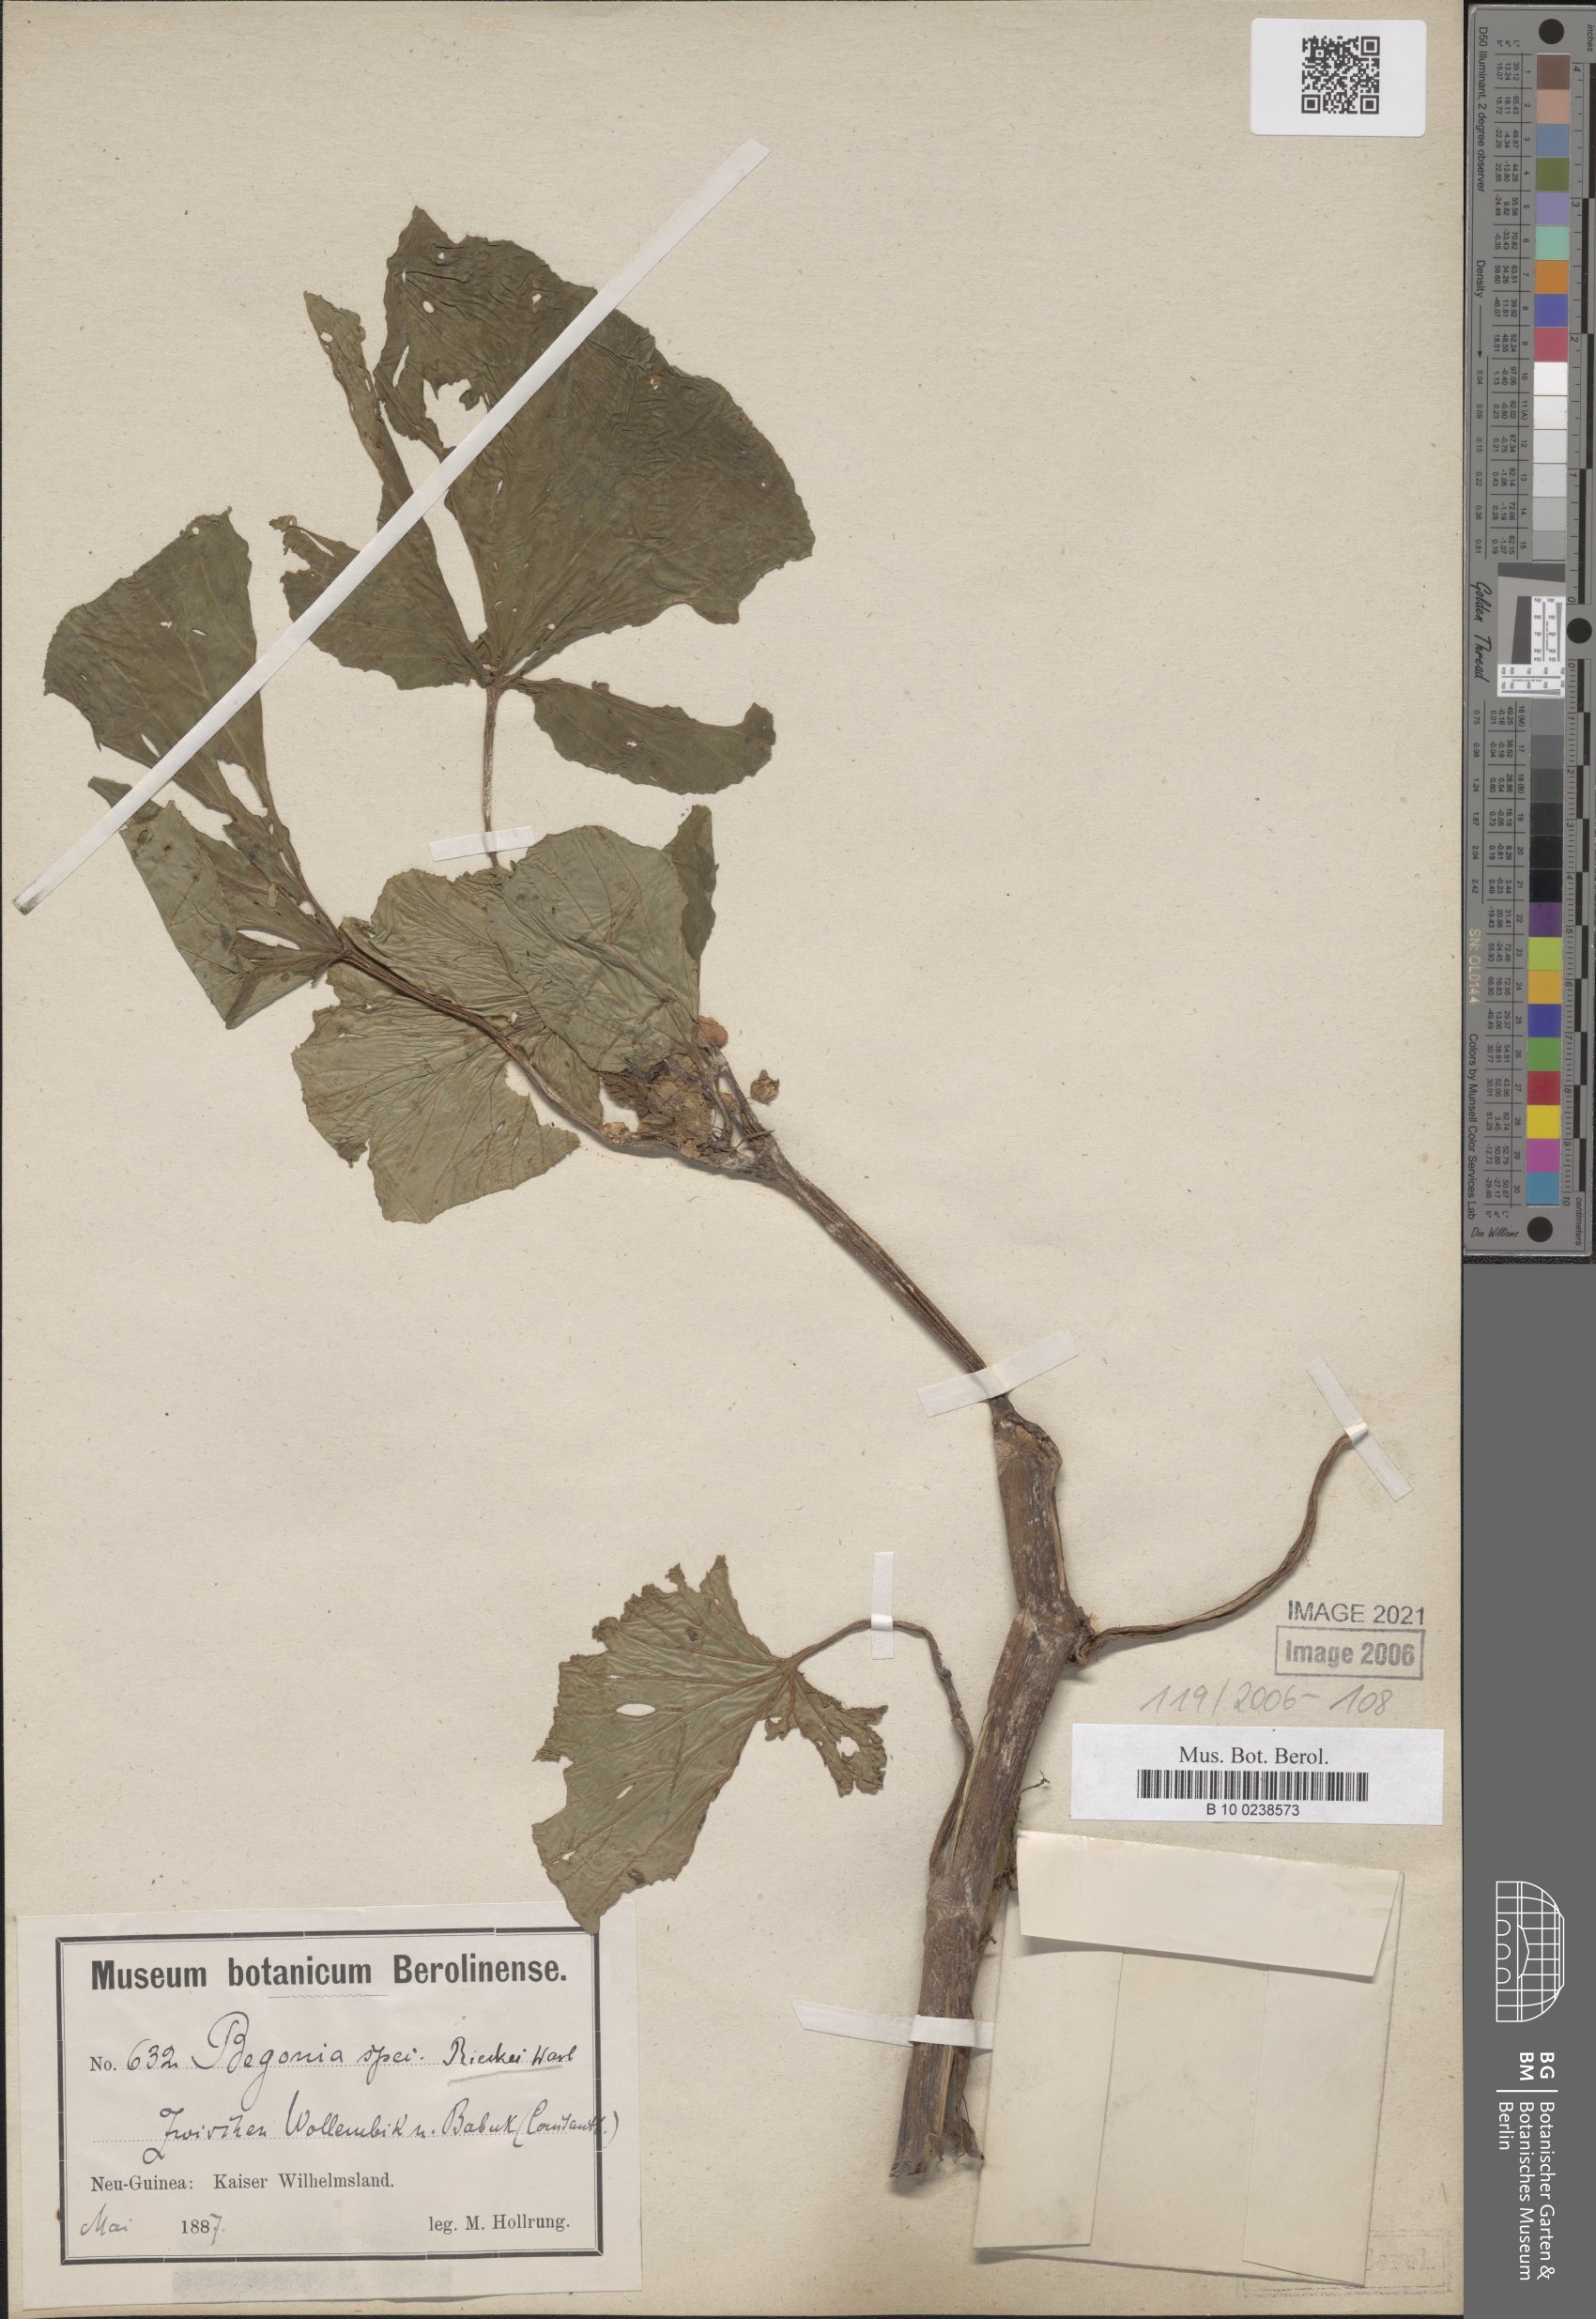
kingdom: Plantae
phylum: Tracheophyta
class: Magnoliopsida
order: Cucurbitales
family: Begoniaceae
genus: Begonia
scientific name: Begonia rieckei
